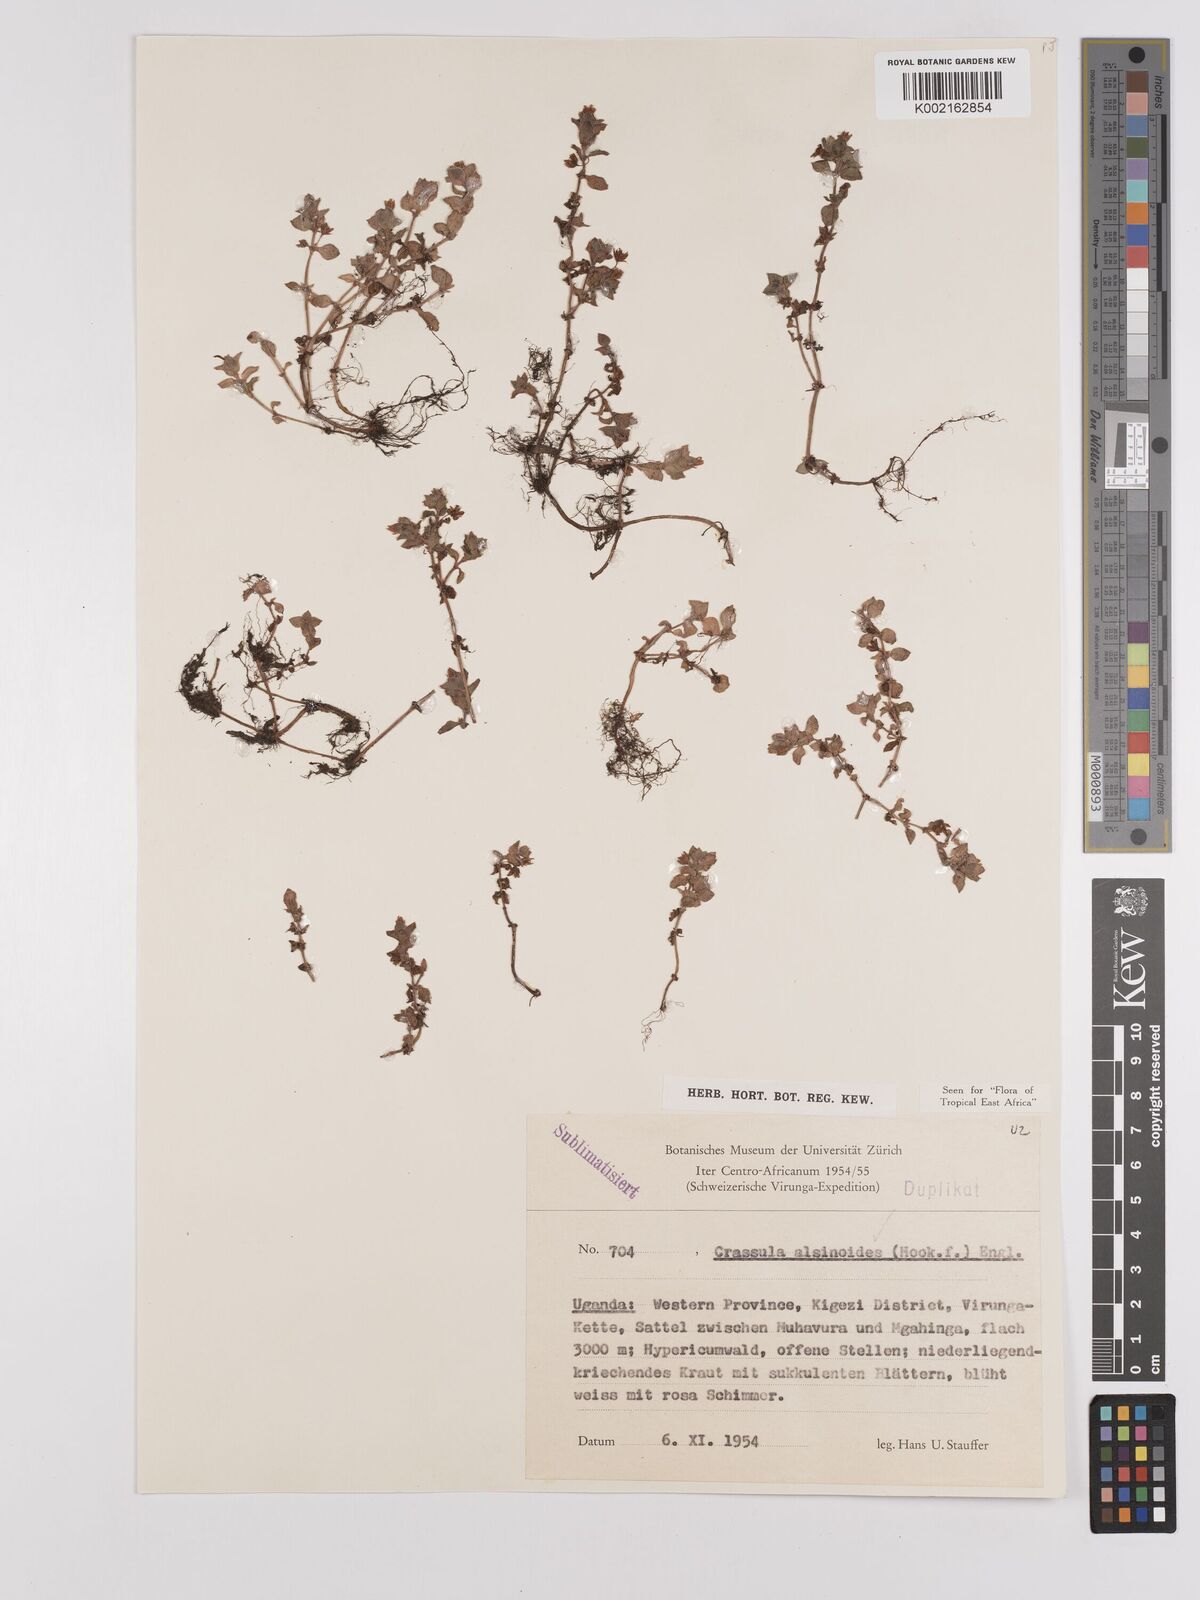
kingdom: Plantae
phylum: Tracheophyta
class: Magnoliopsida
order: Saxifragales
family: Crassulaceae
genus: Crassula
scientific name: Crassula alsinoides
